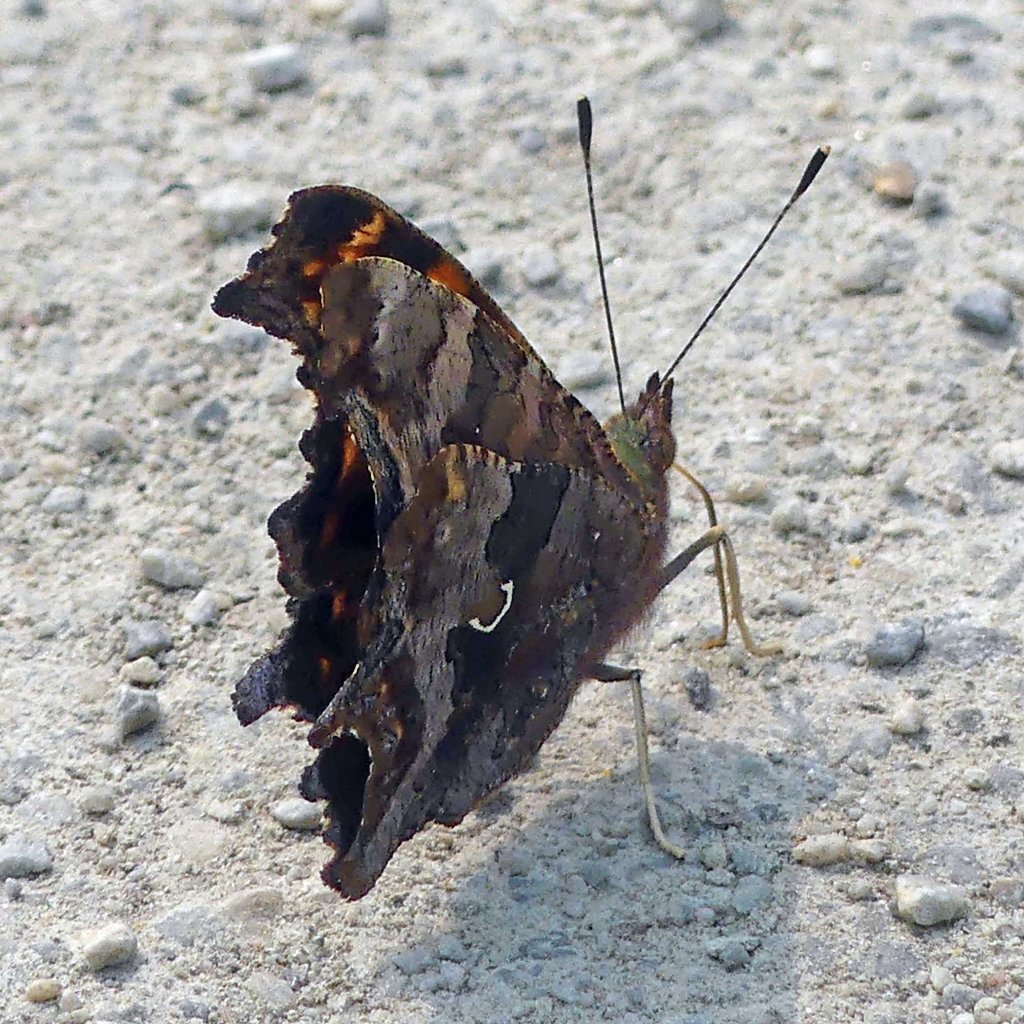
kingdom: Animalia
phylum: Arthropoda
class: Insecta
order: Lepidoptera
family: Nymphalidae
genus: Polygonia
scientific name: Polygonia comma
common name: Eastern Comma
